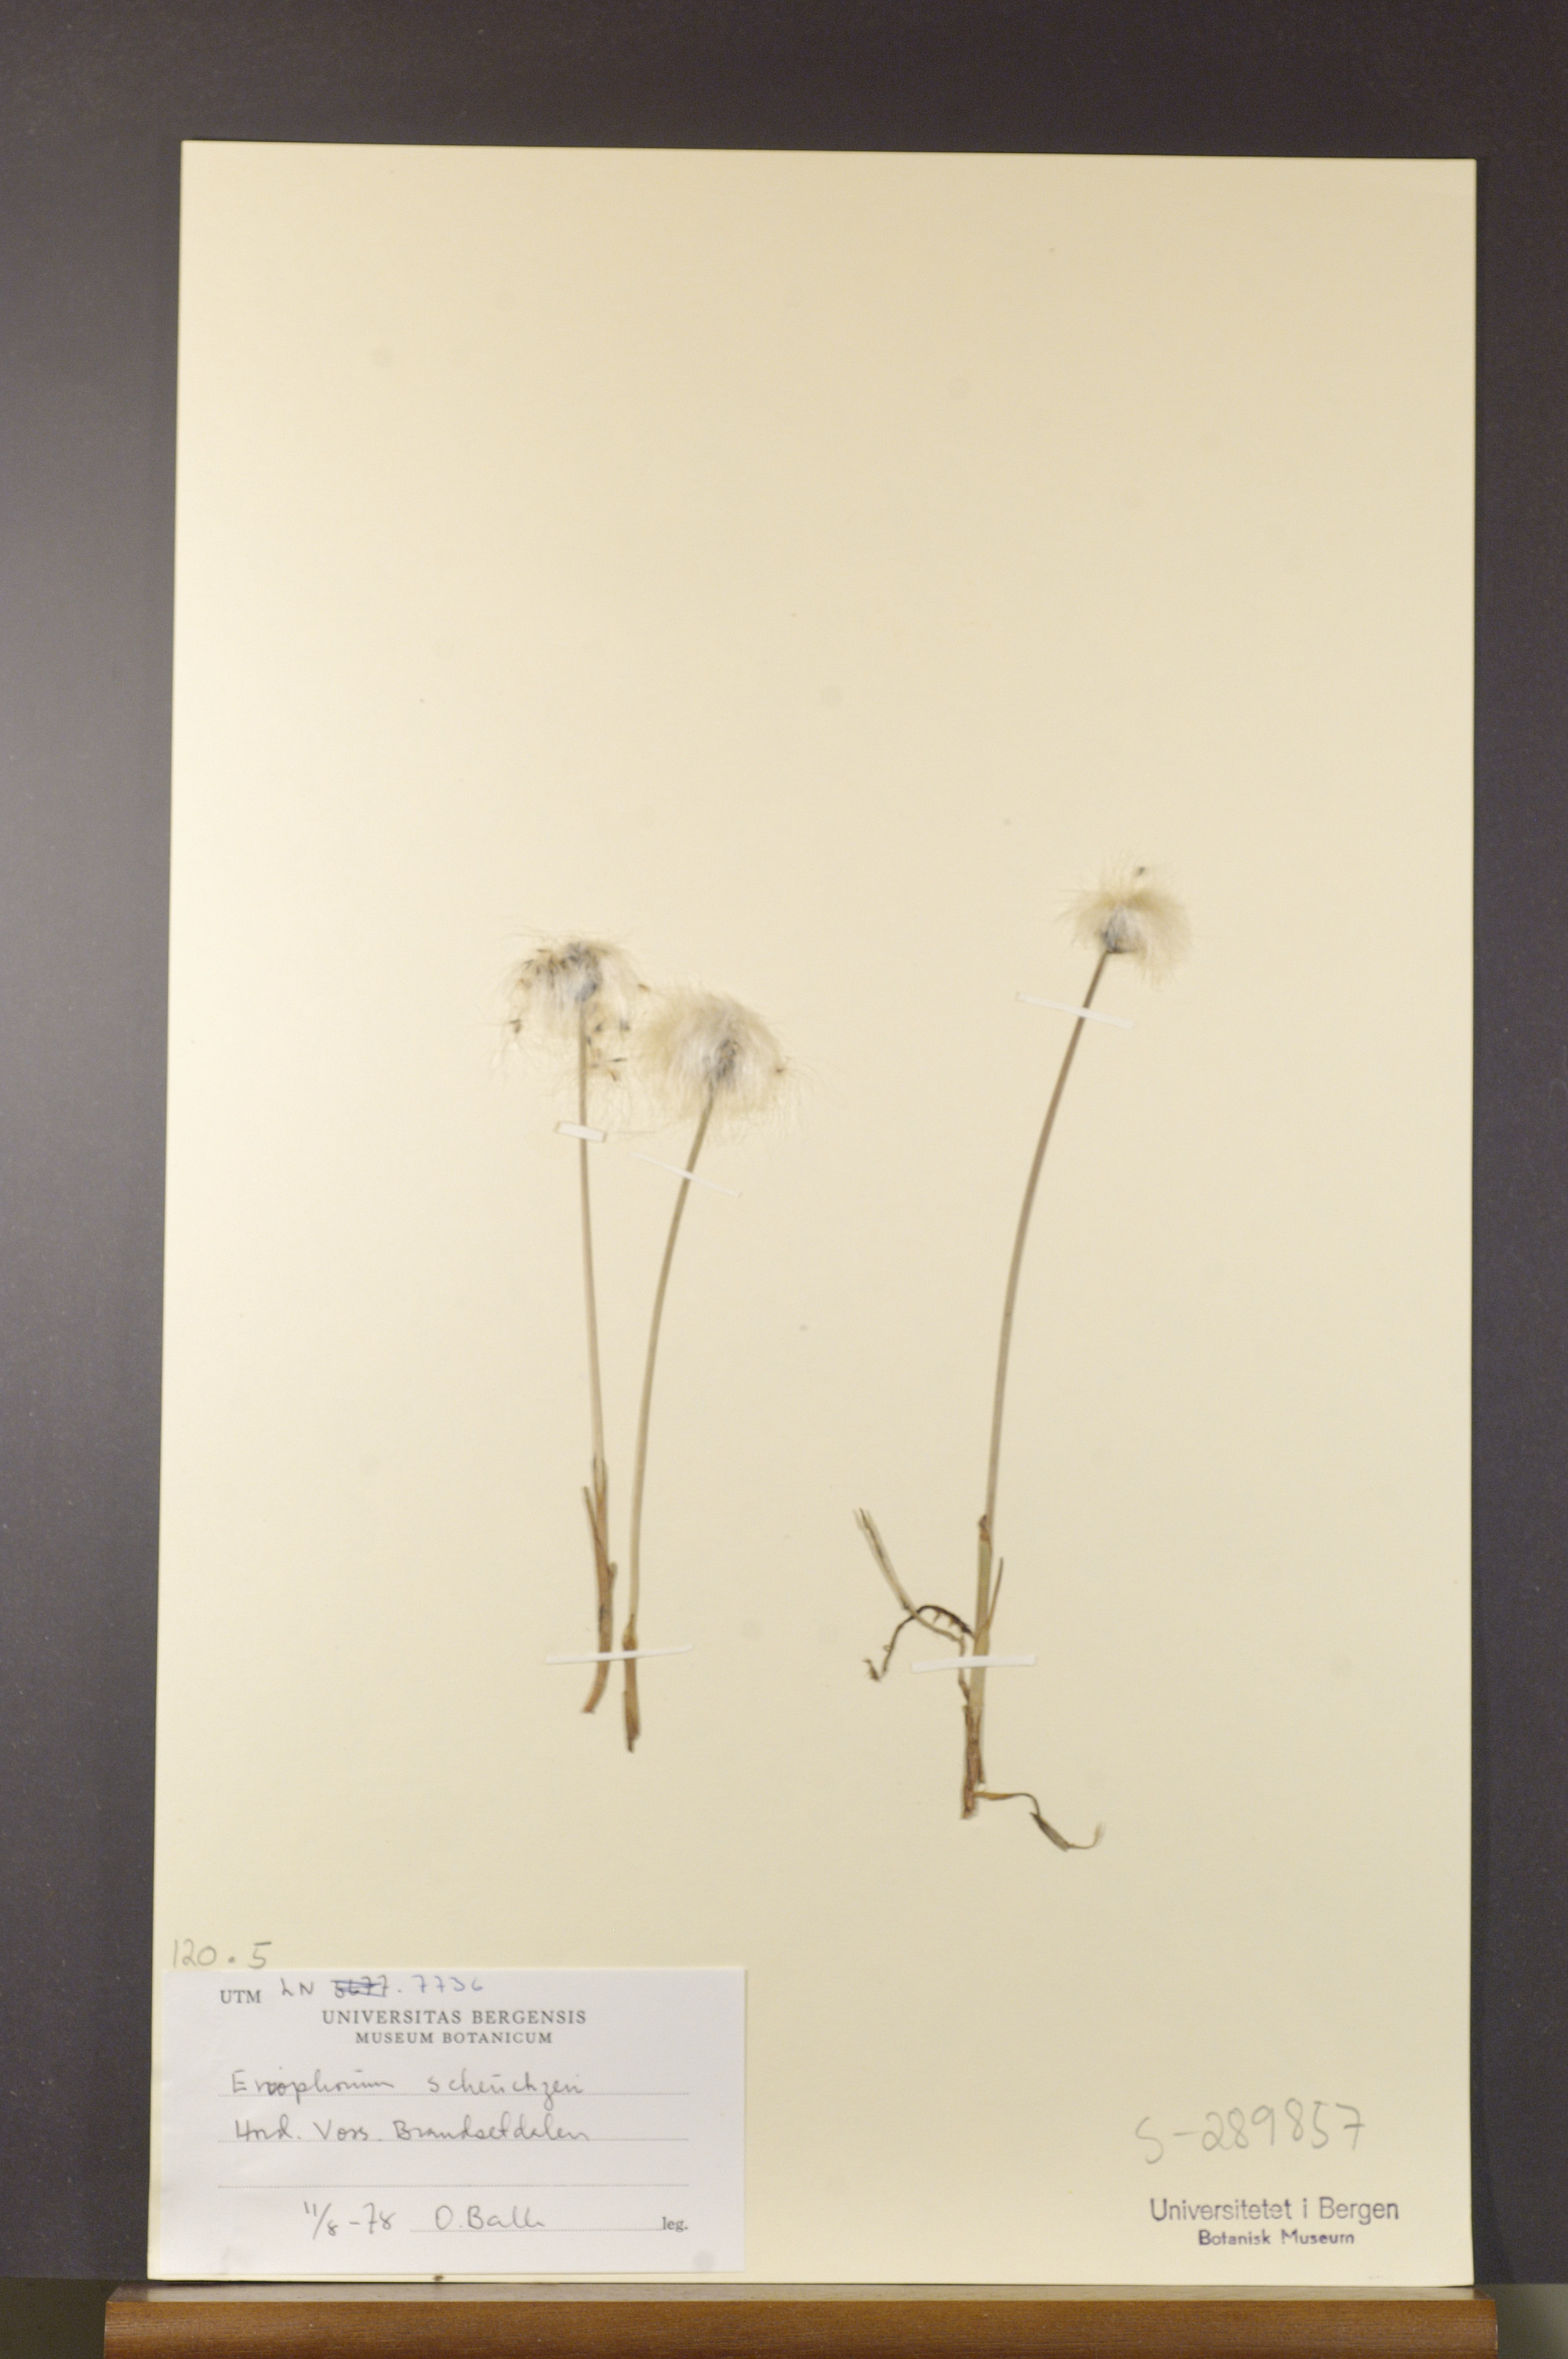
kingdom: Plantae
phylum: Tracheophyta
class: Liliopsida
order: Poales
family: Cyperaceae
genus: Eriophorum
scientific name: Eriophorum scheuchzeri
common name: Scheuchzer's cottongrass
